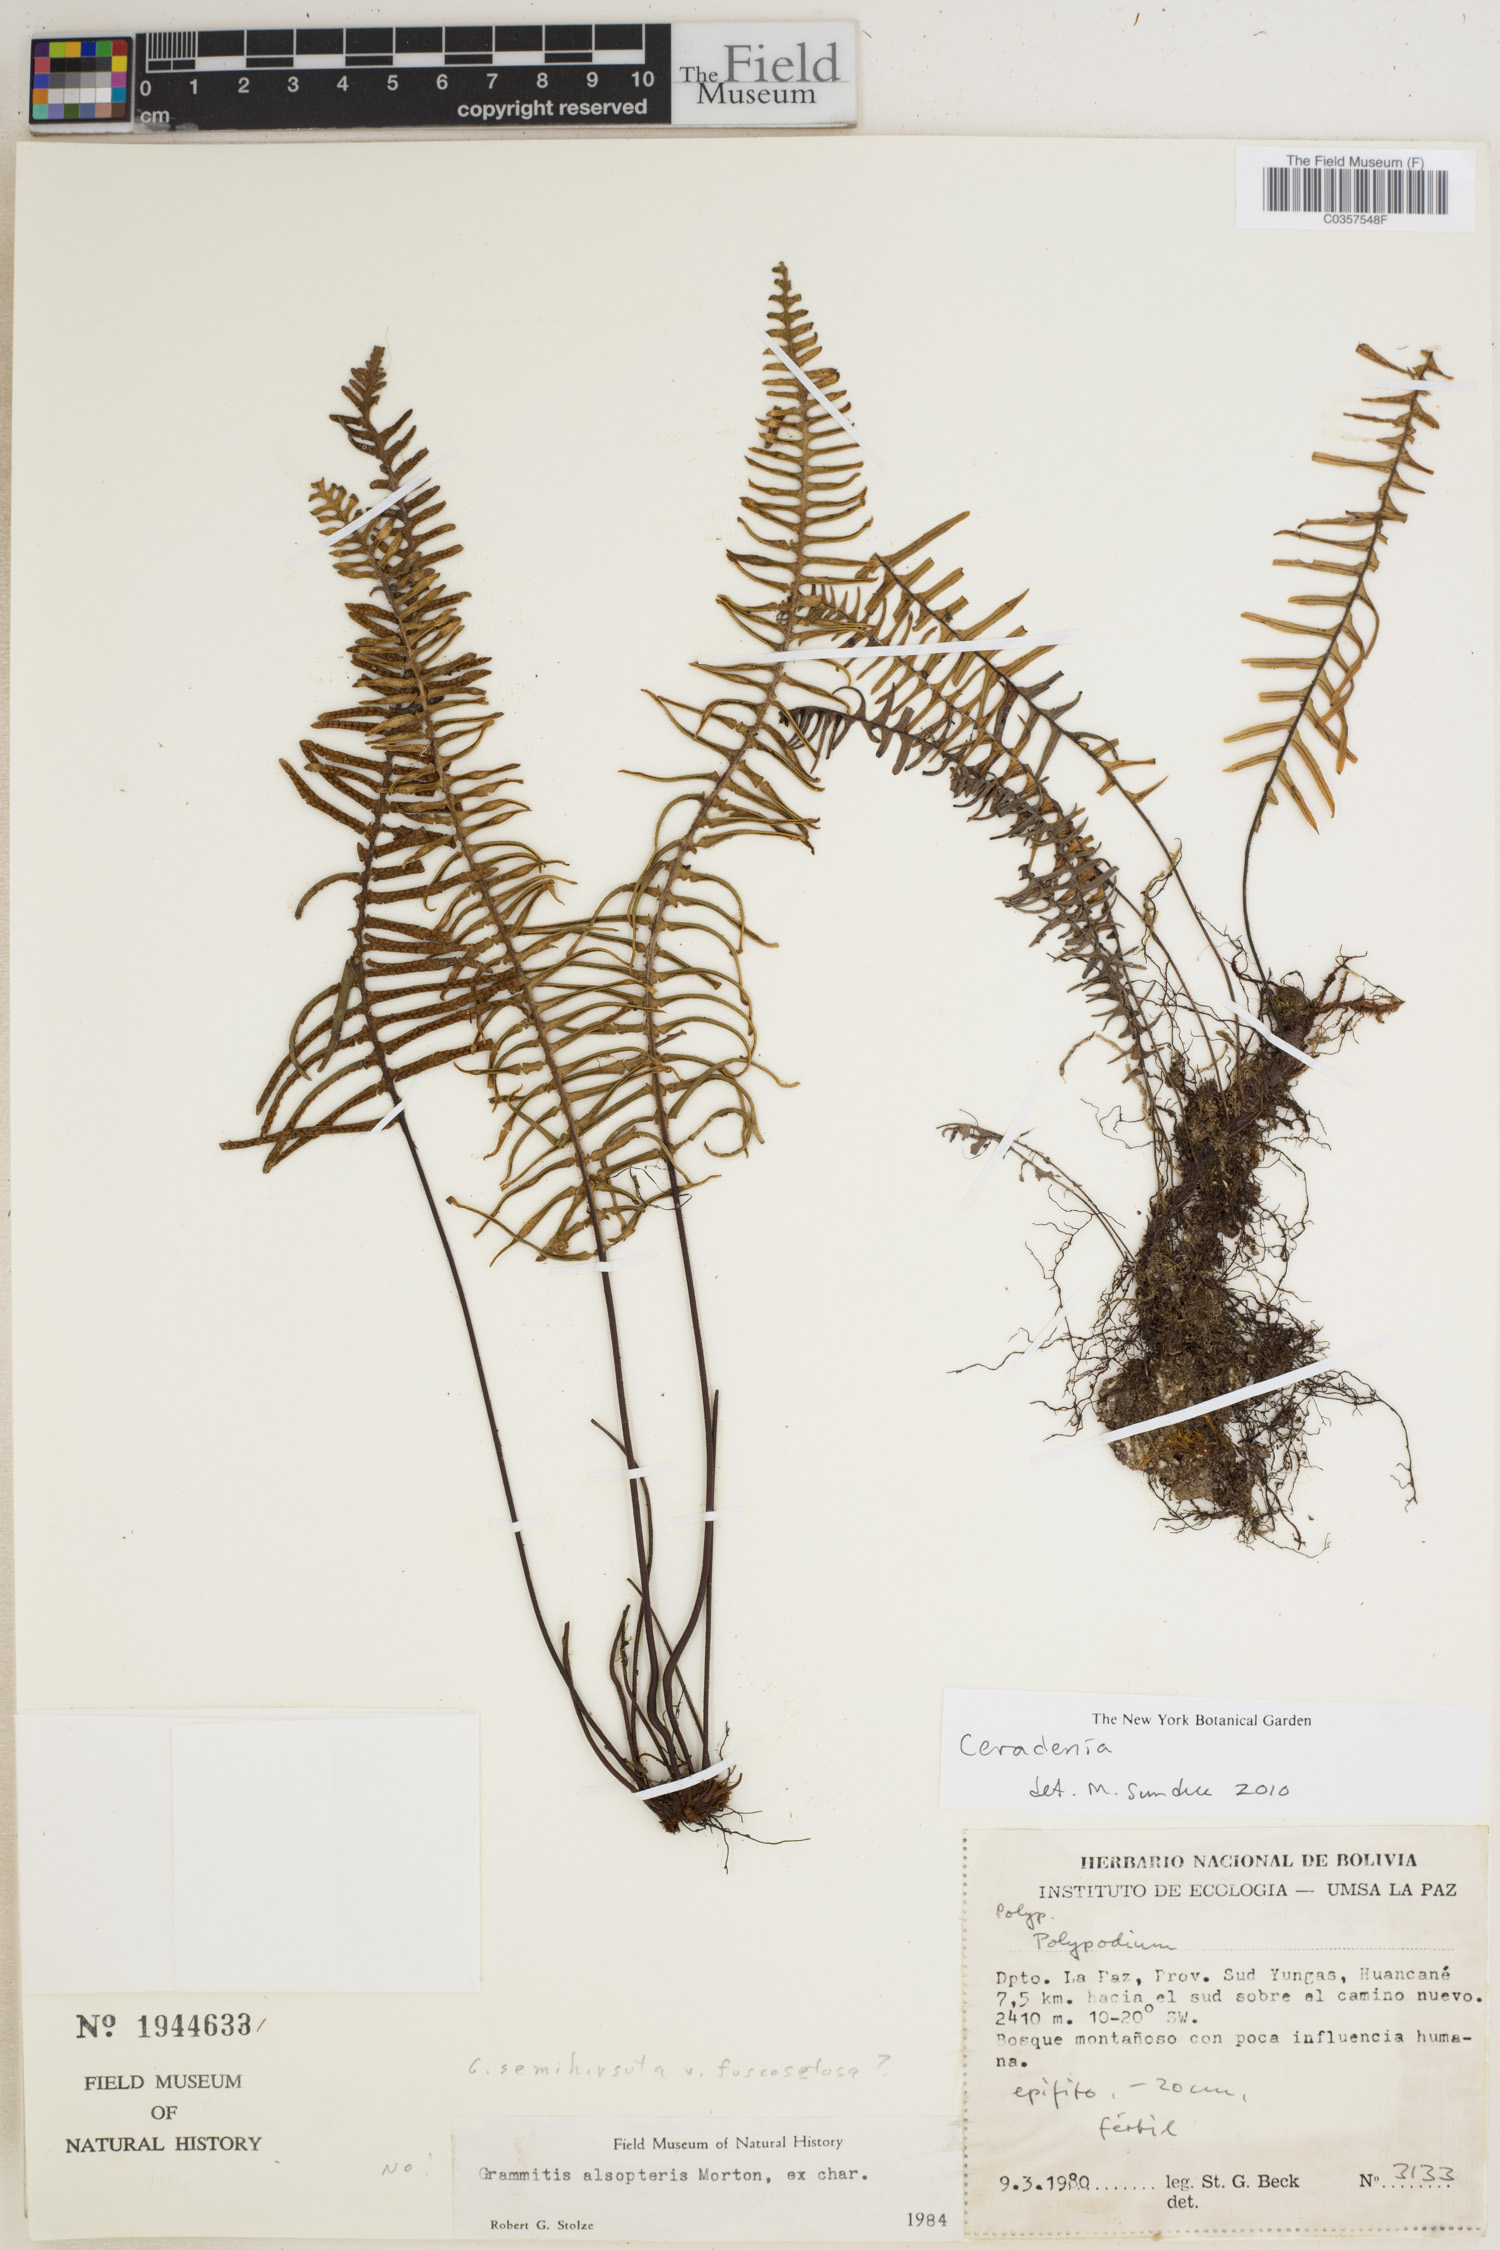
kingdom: Plantae
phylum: Tracheophyta
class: Polypodiopsida
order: Polypodiales
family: Polypodiaceae
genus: Ceradenia
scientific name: Ceradenia
